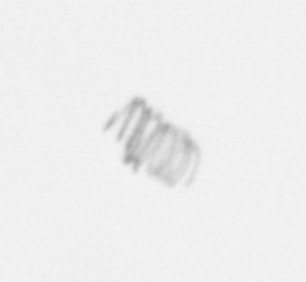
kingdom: Chromista
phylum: Ochrophyta
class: Bacillariophyceae
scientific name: Bacillariophyceae
